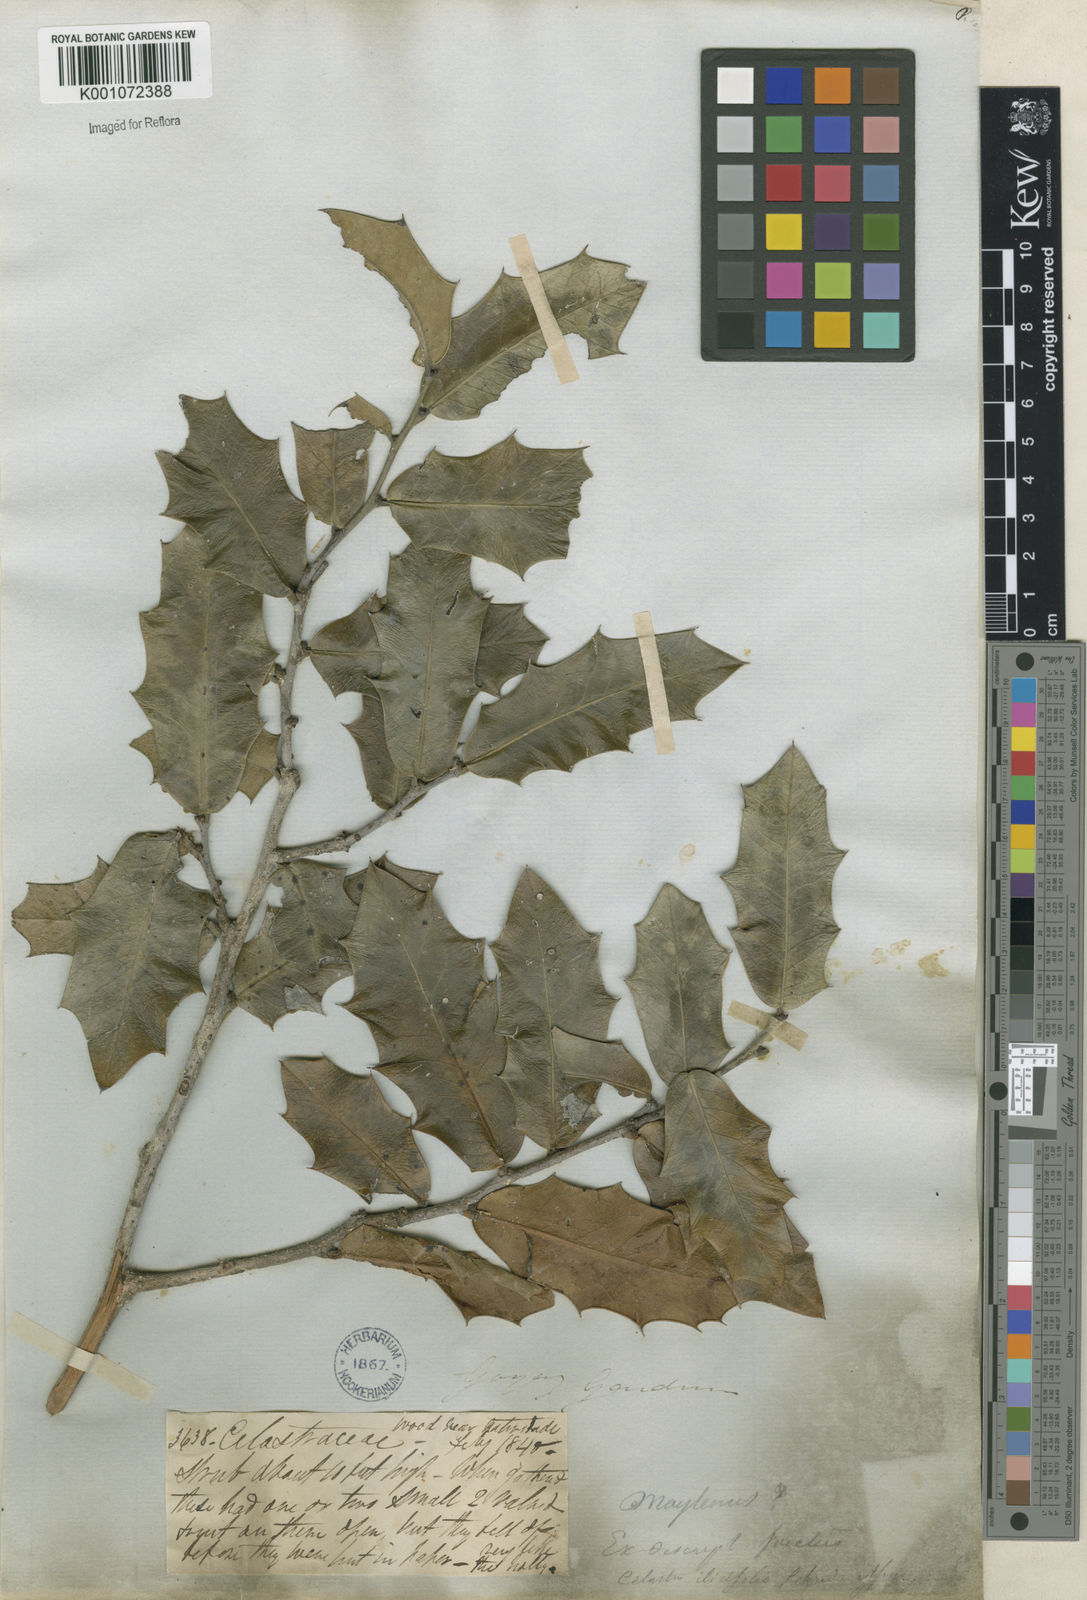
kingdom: Plantae
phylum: Tracheophyta
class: Magnoliopsida
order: Celastrales
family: Celastraceae
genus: Maytenus
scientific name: Maytenus
